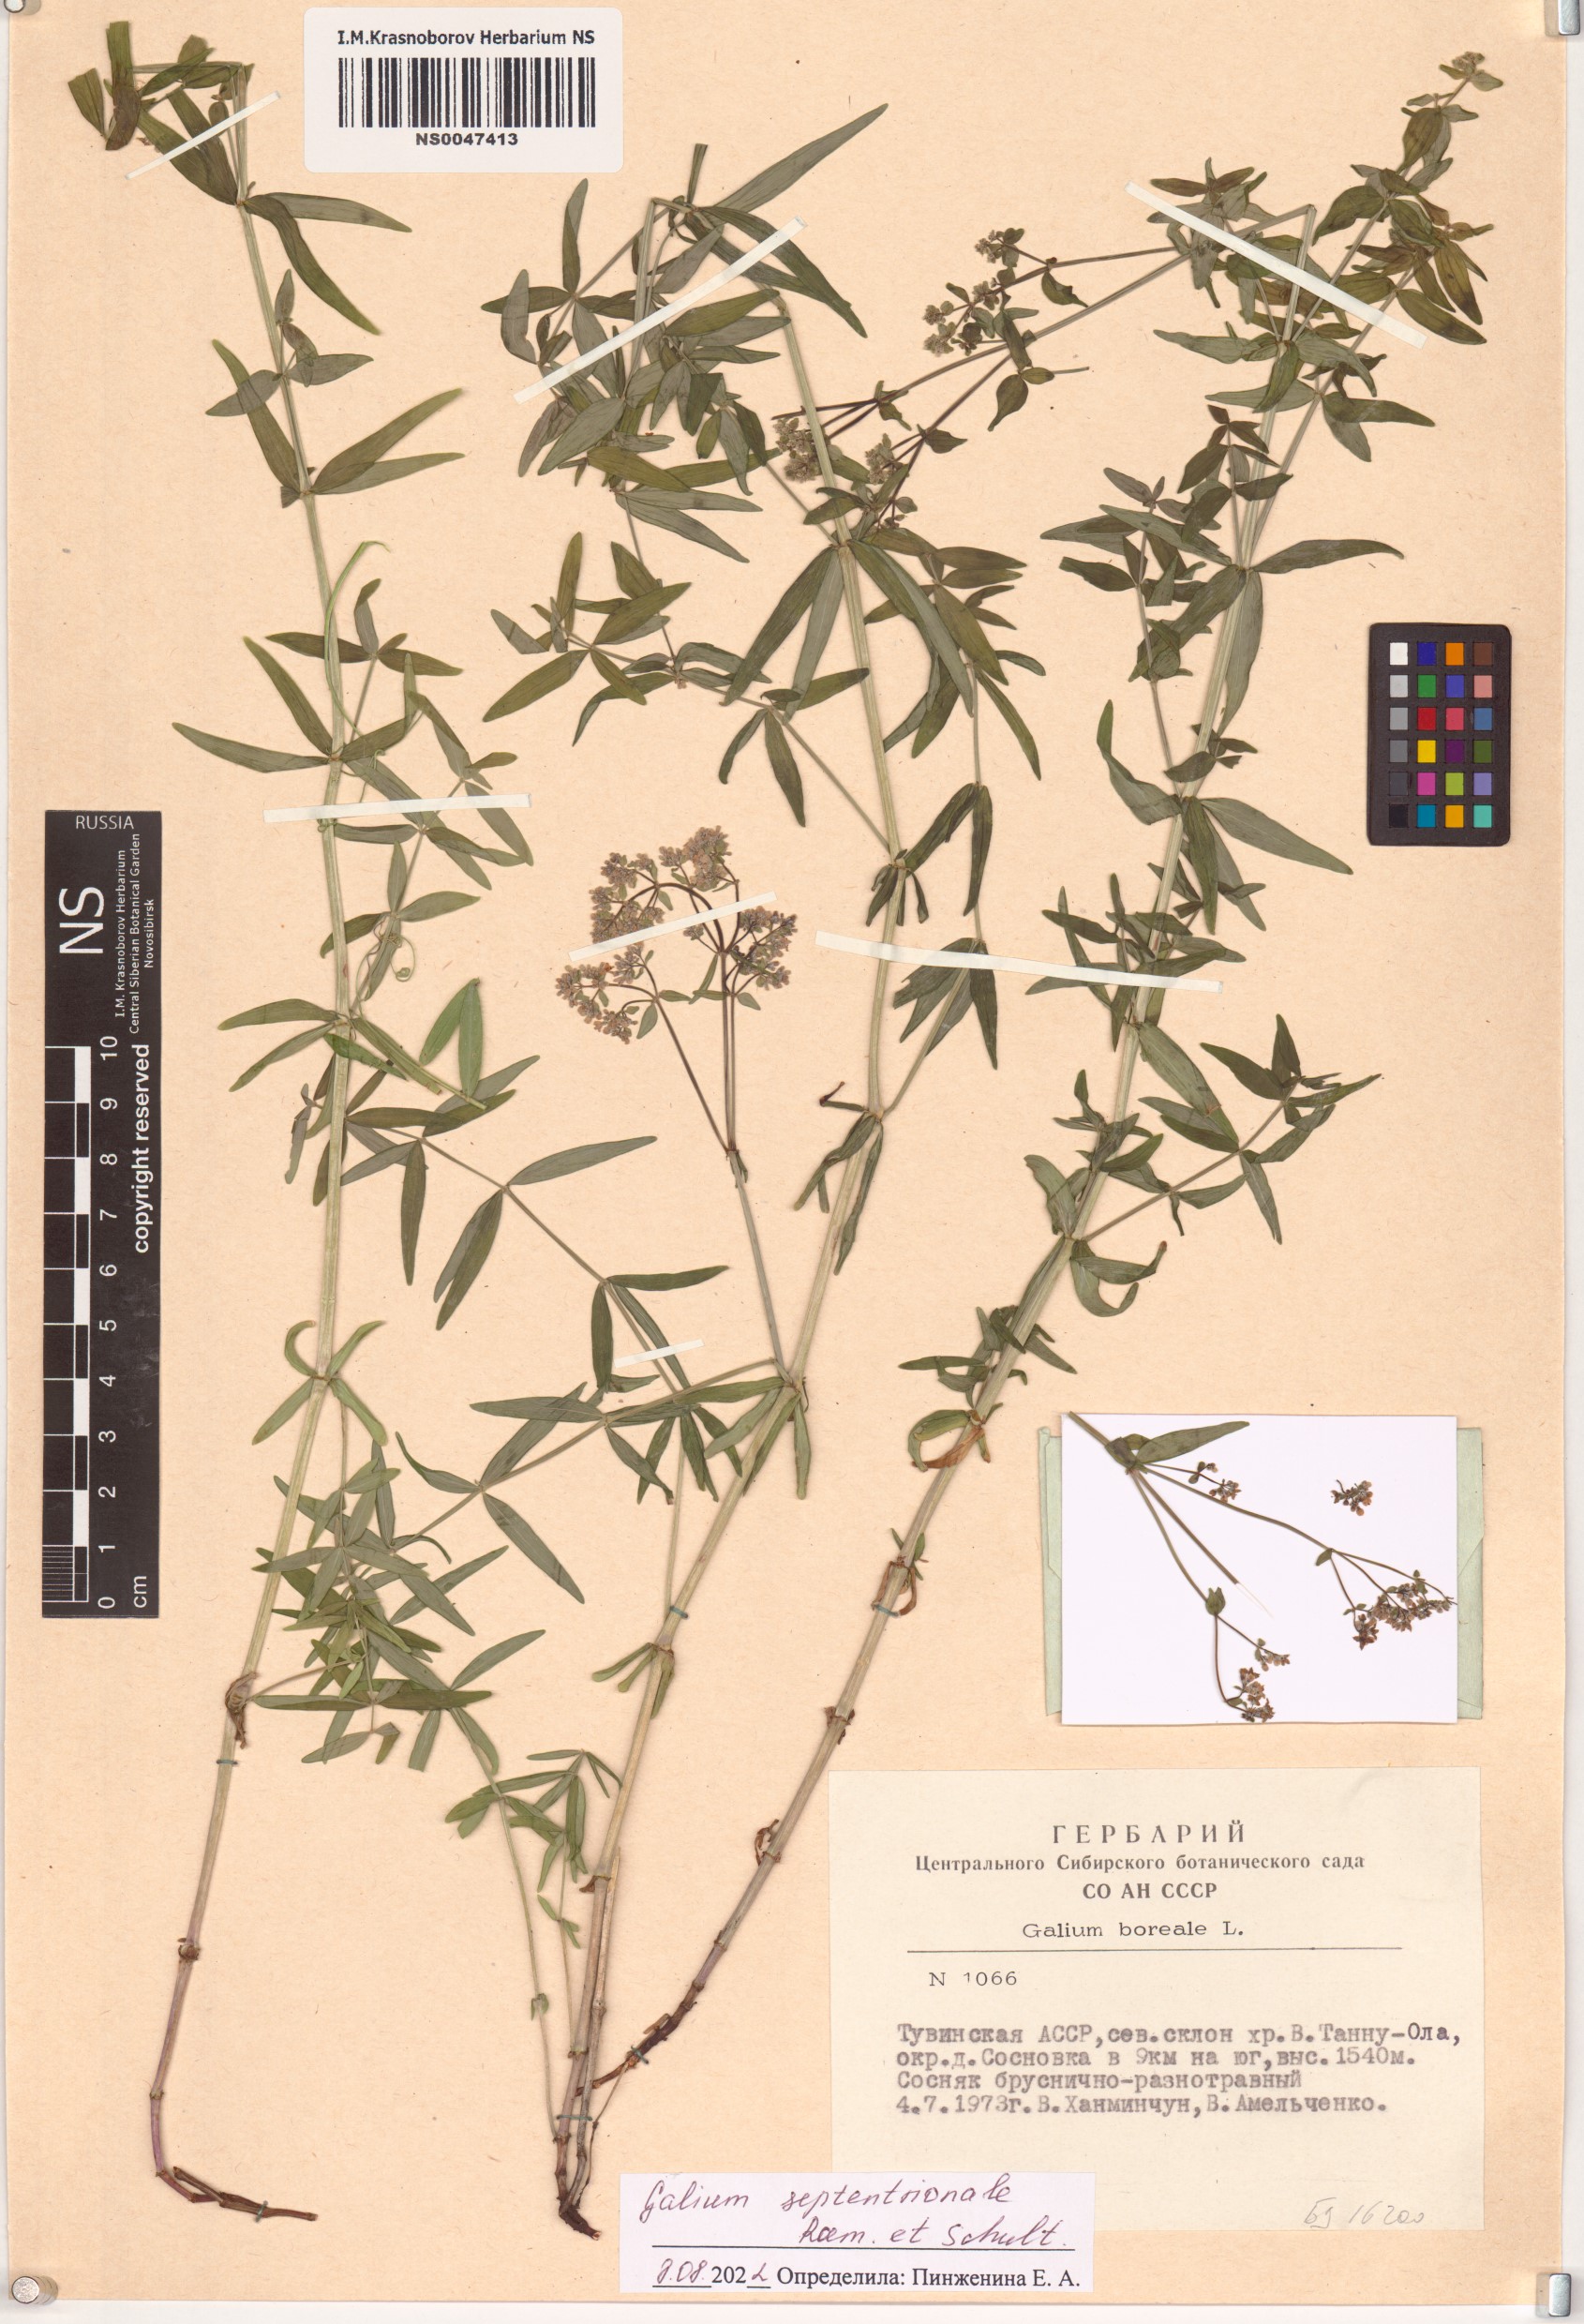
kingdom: Plantae
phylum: Tracheophyta
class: Magnoliopsida
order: Gentianales
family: Rubiaceae
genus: Galium
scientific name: Galium boreale
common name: Northern bedstraw
